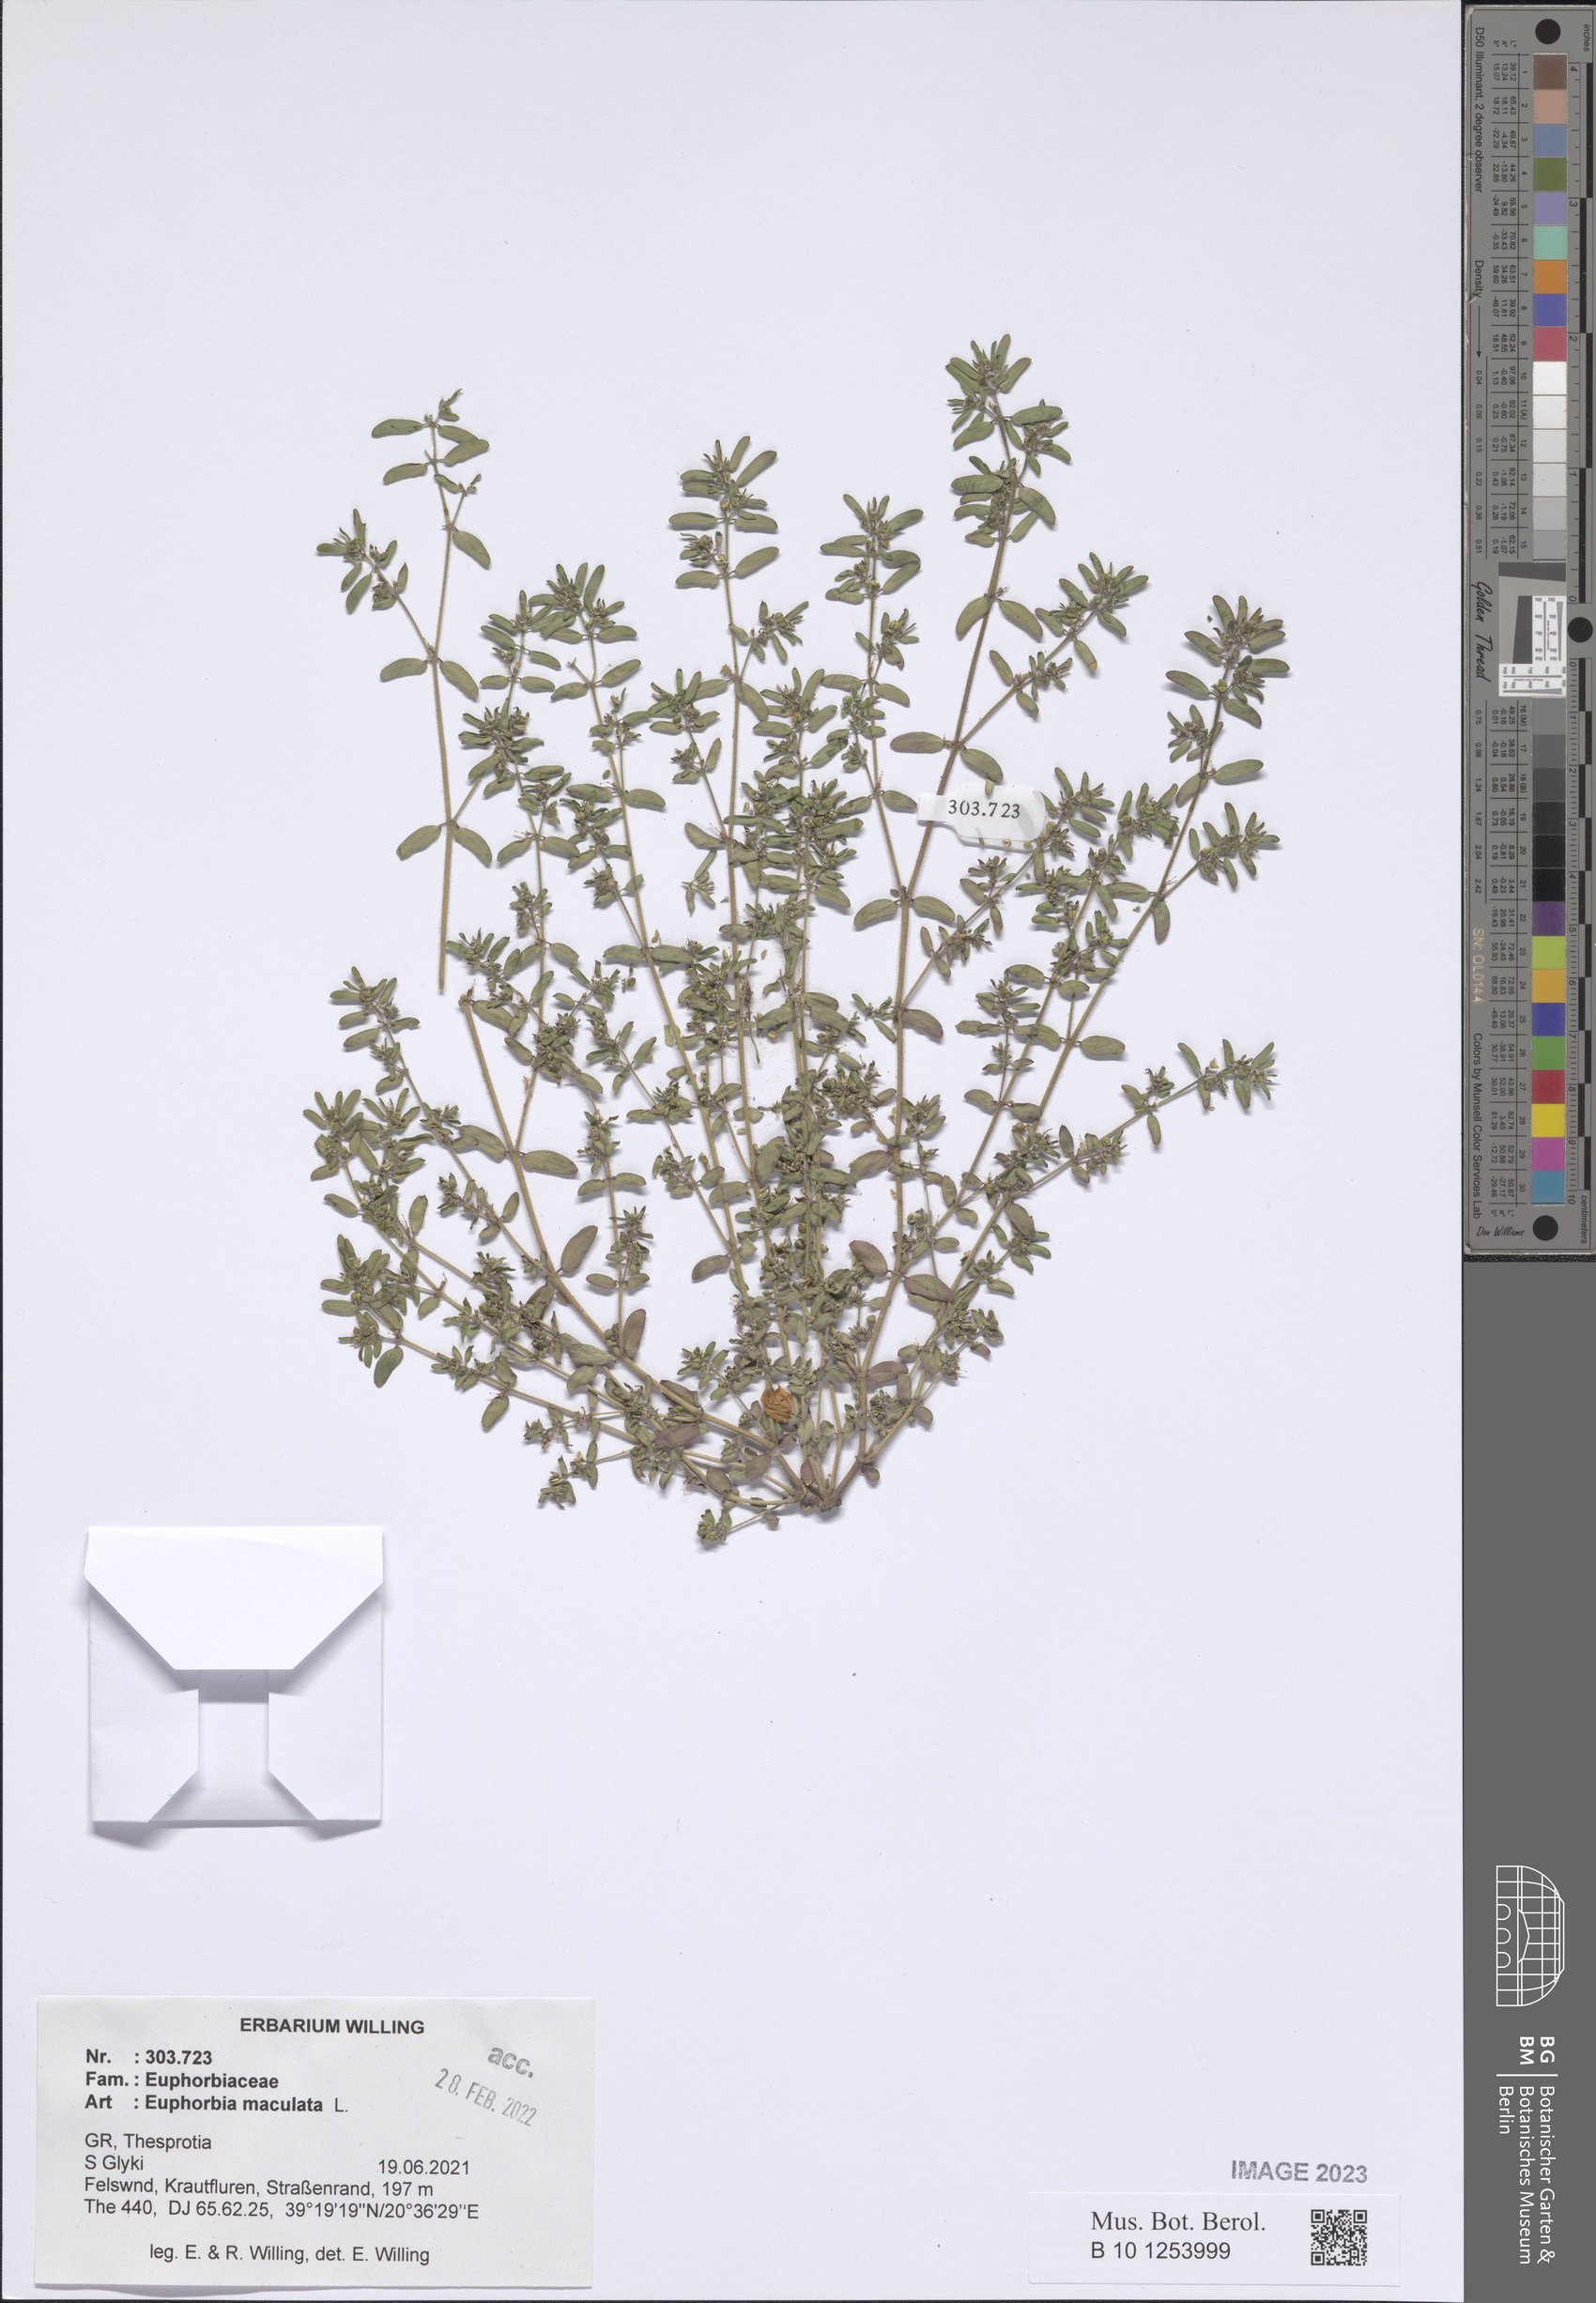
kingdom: Plantae
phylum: Tracheophyta
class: Magnoliopsida
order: Malpighiales
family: Euphorbiaceae
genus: Euphorbia
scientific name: Euphorbia maculata
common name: Spotted spurge
